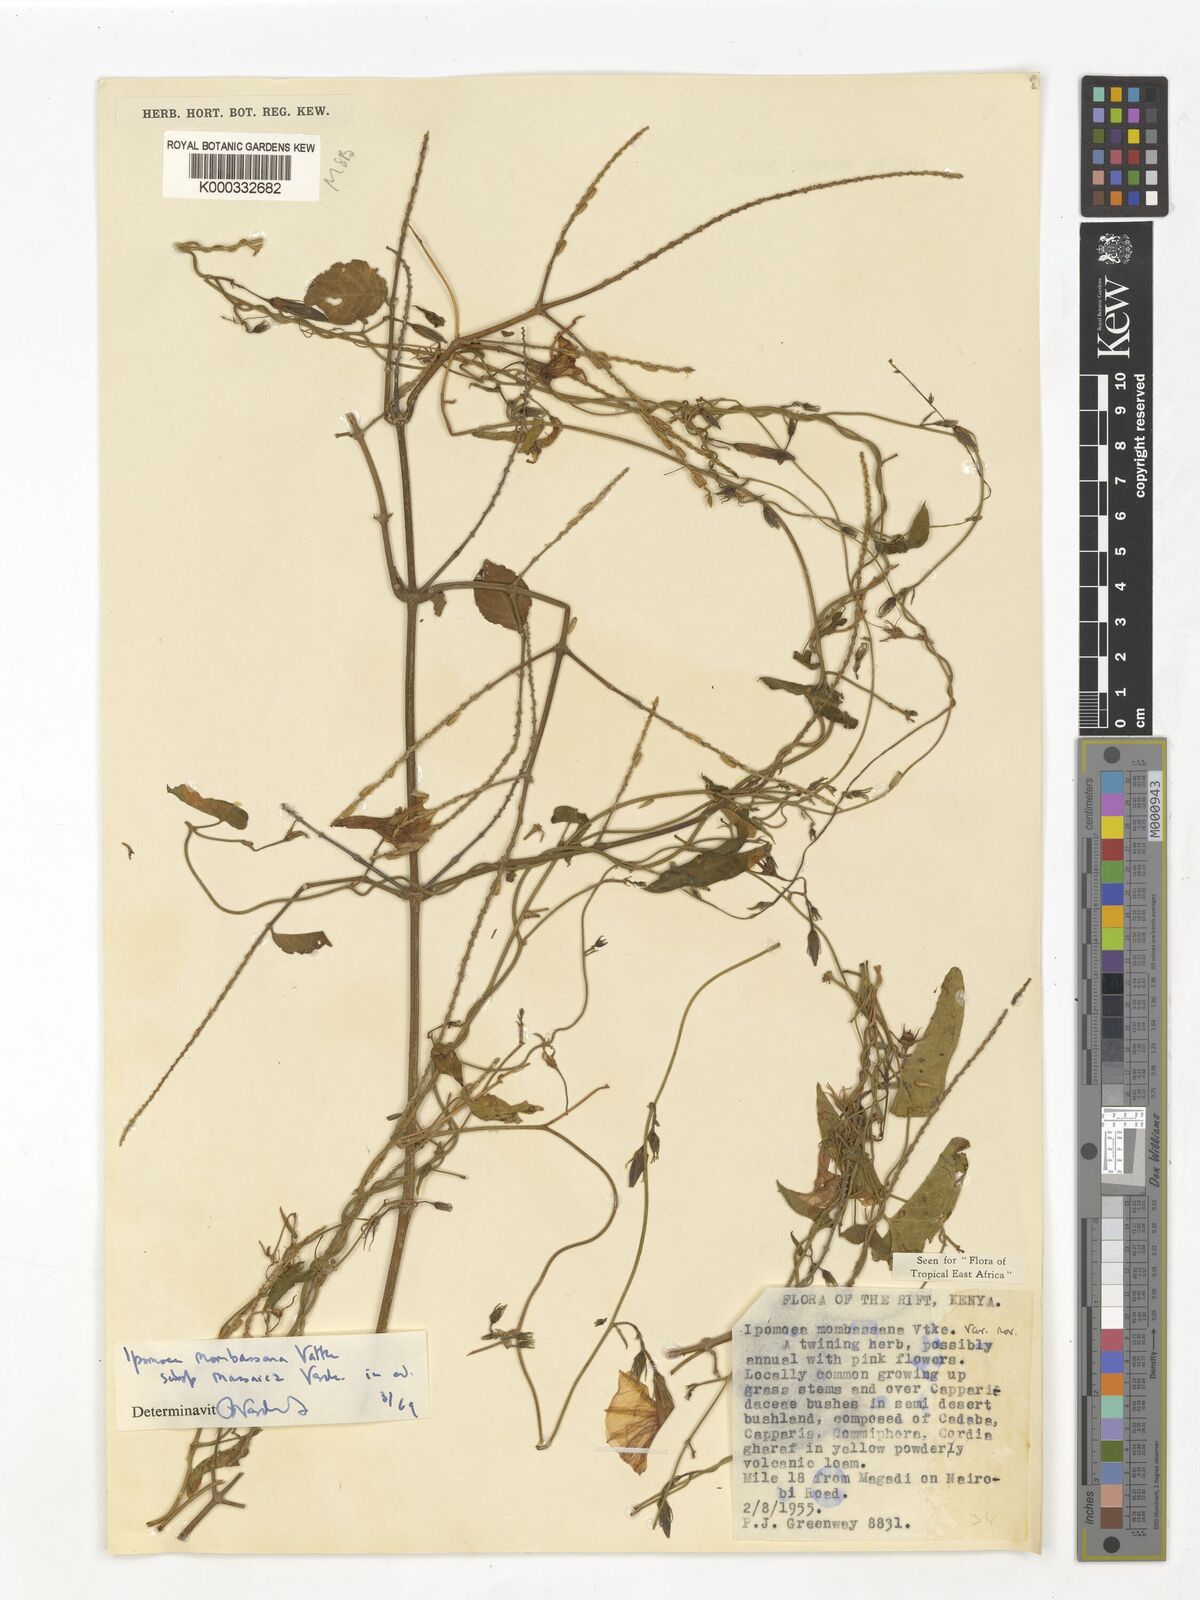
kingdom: Plantae
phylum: Tracheophyta
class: Magnoliopsida
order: Solanales
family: Convolvulaceae
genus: Ipomoea
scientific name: Ipomoea mombassana
